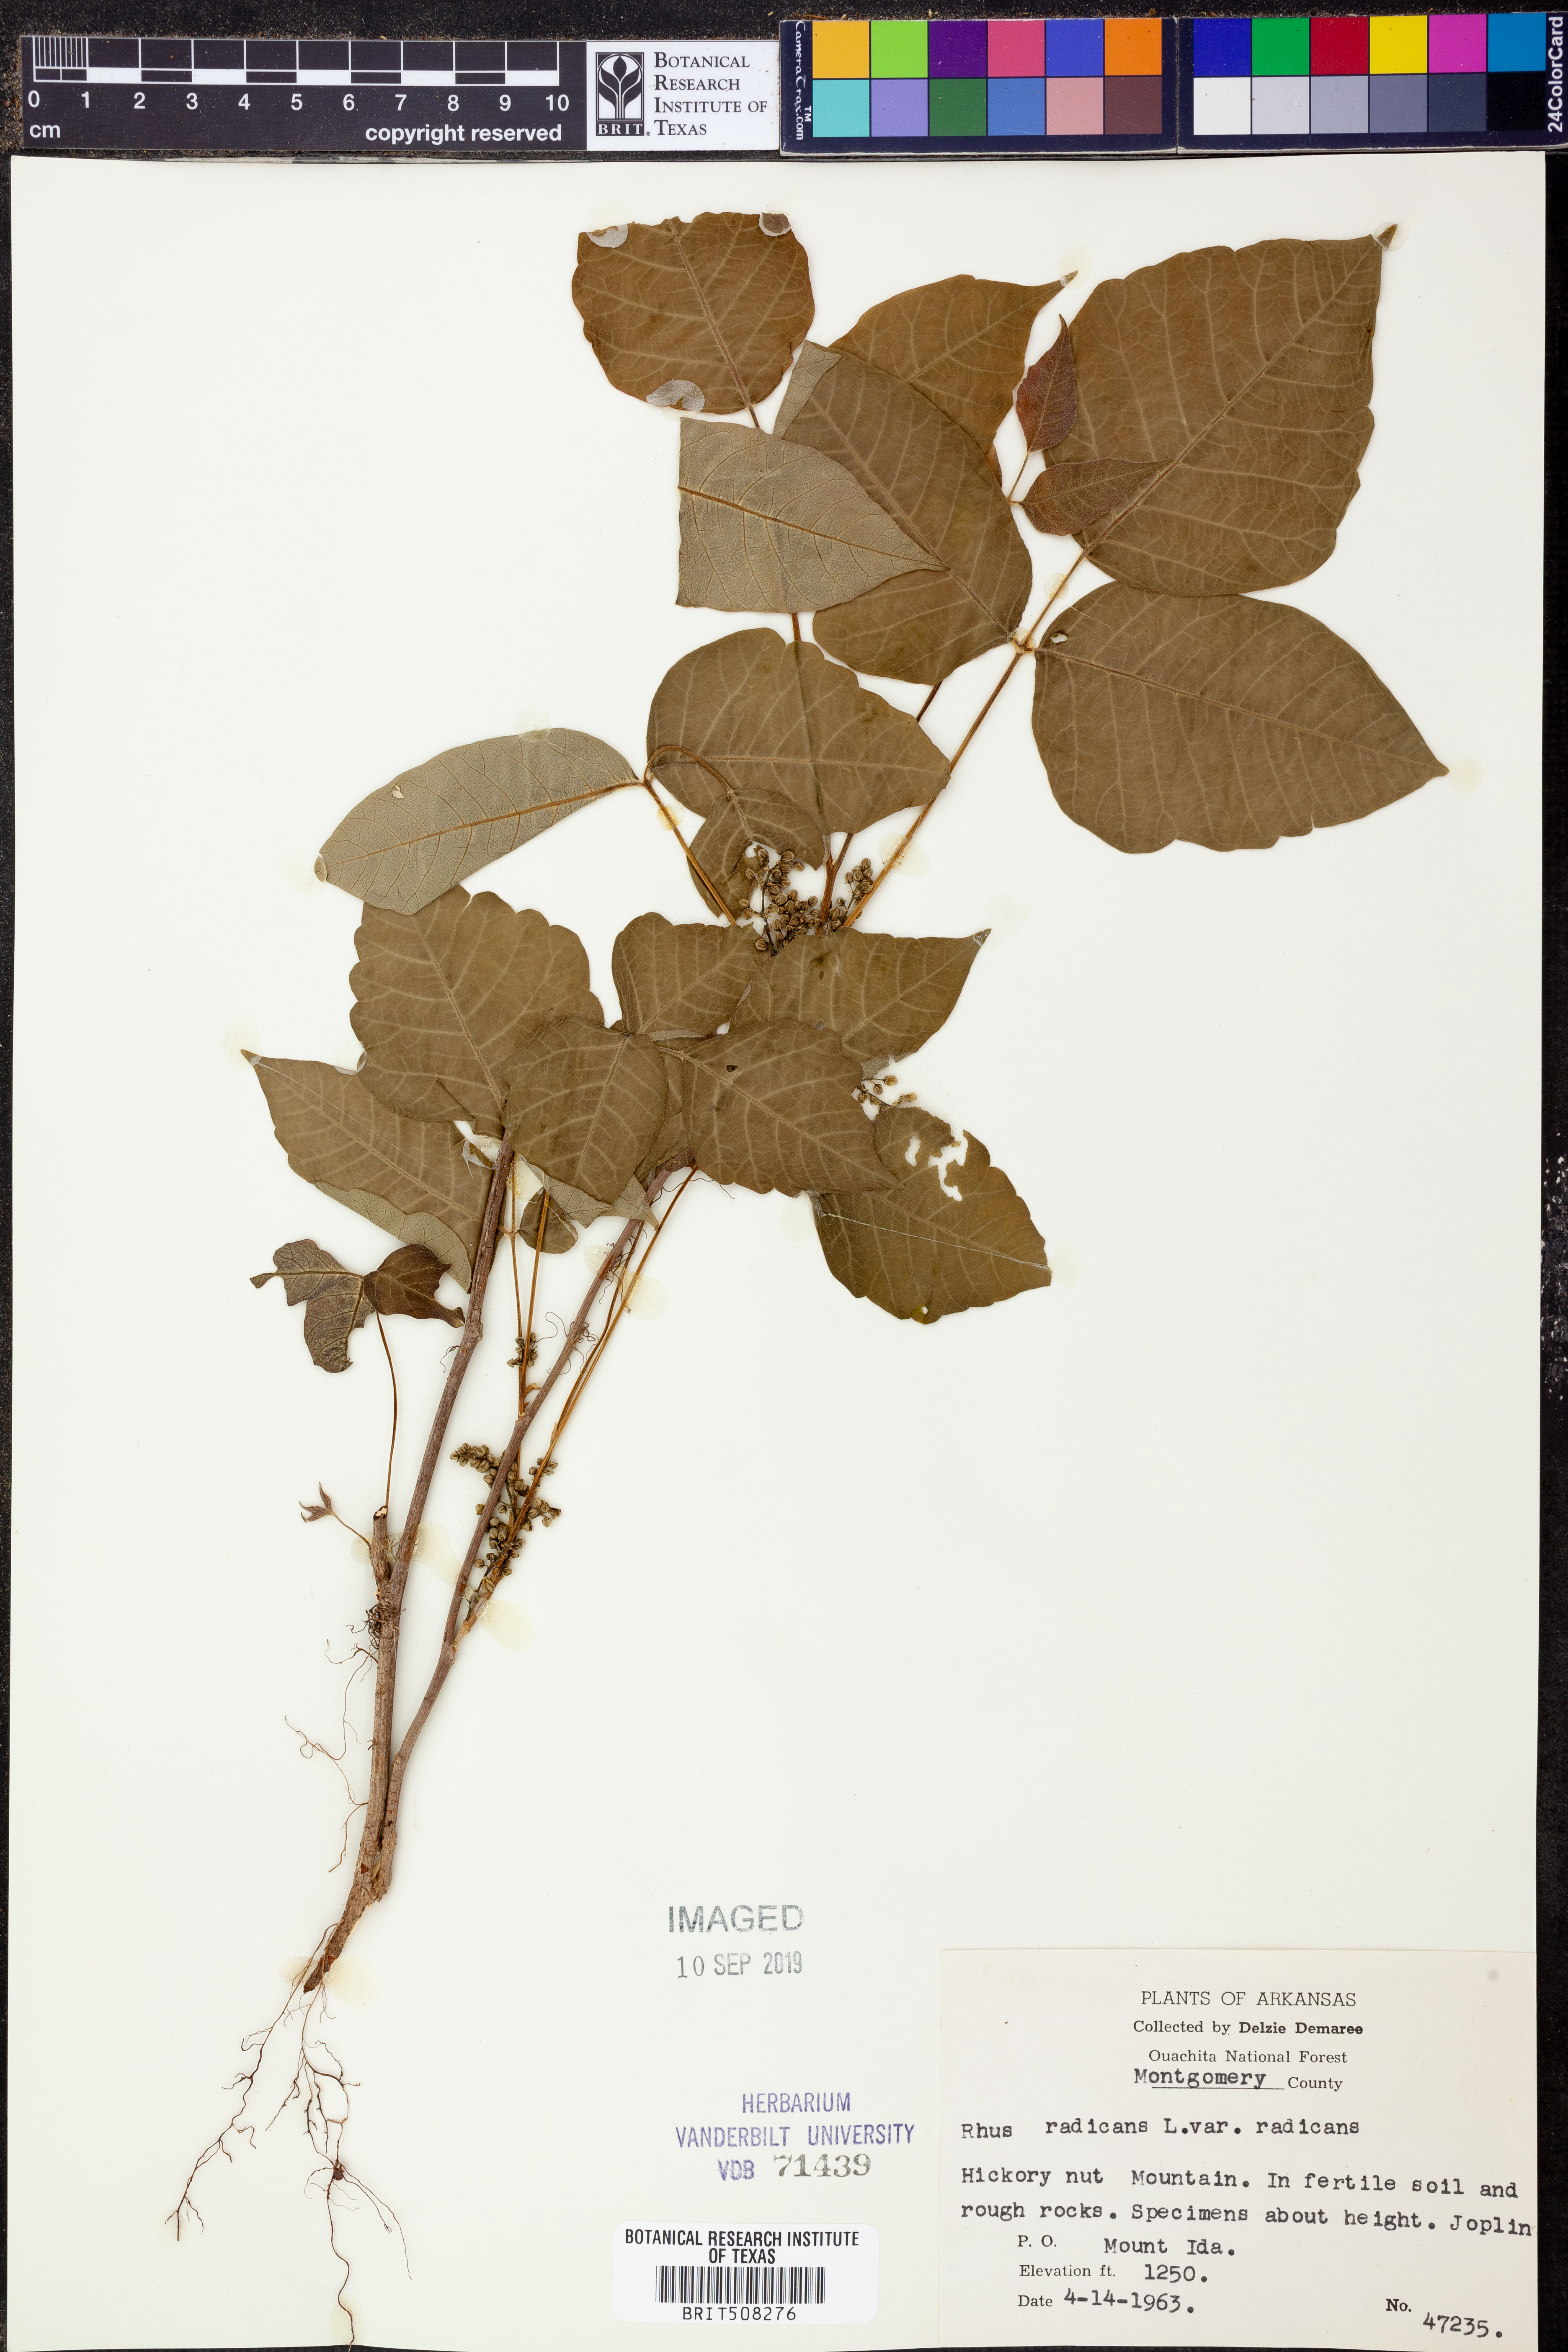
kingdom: Plantae
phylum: Tracheophyta
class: Magnoliopsida
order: Sapindales
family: Anacardiaceae
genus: Toxicodendron
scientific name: Toxicodendron radicans
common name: Poison ivy
